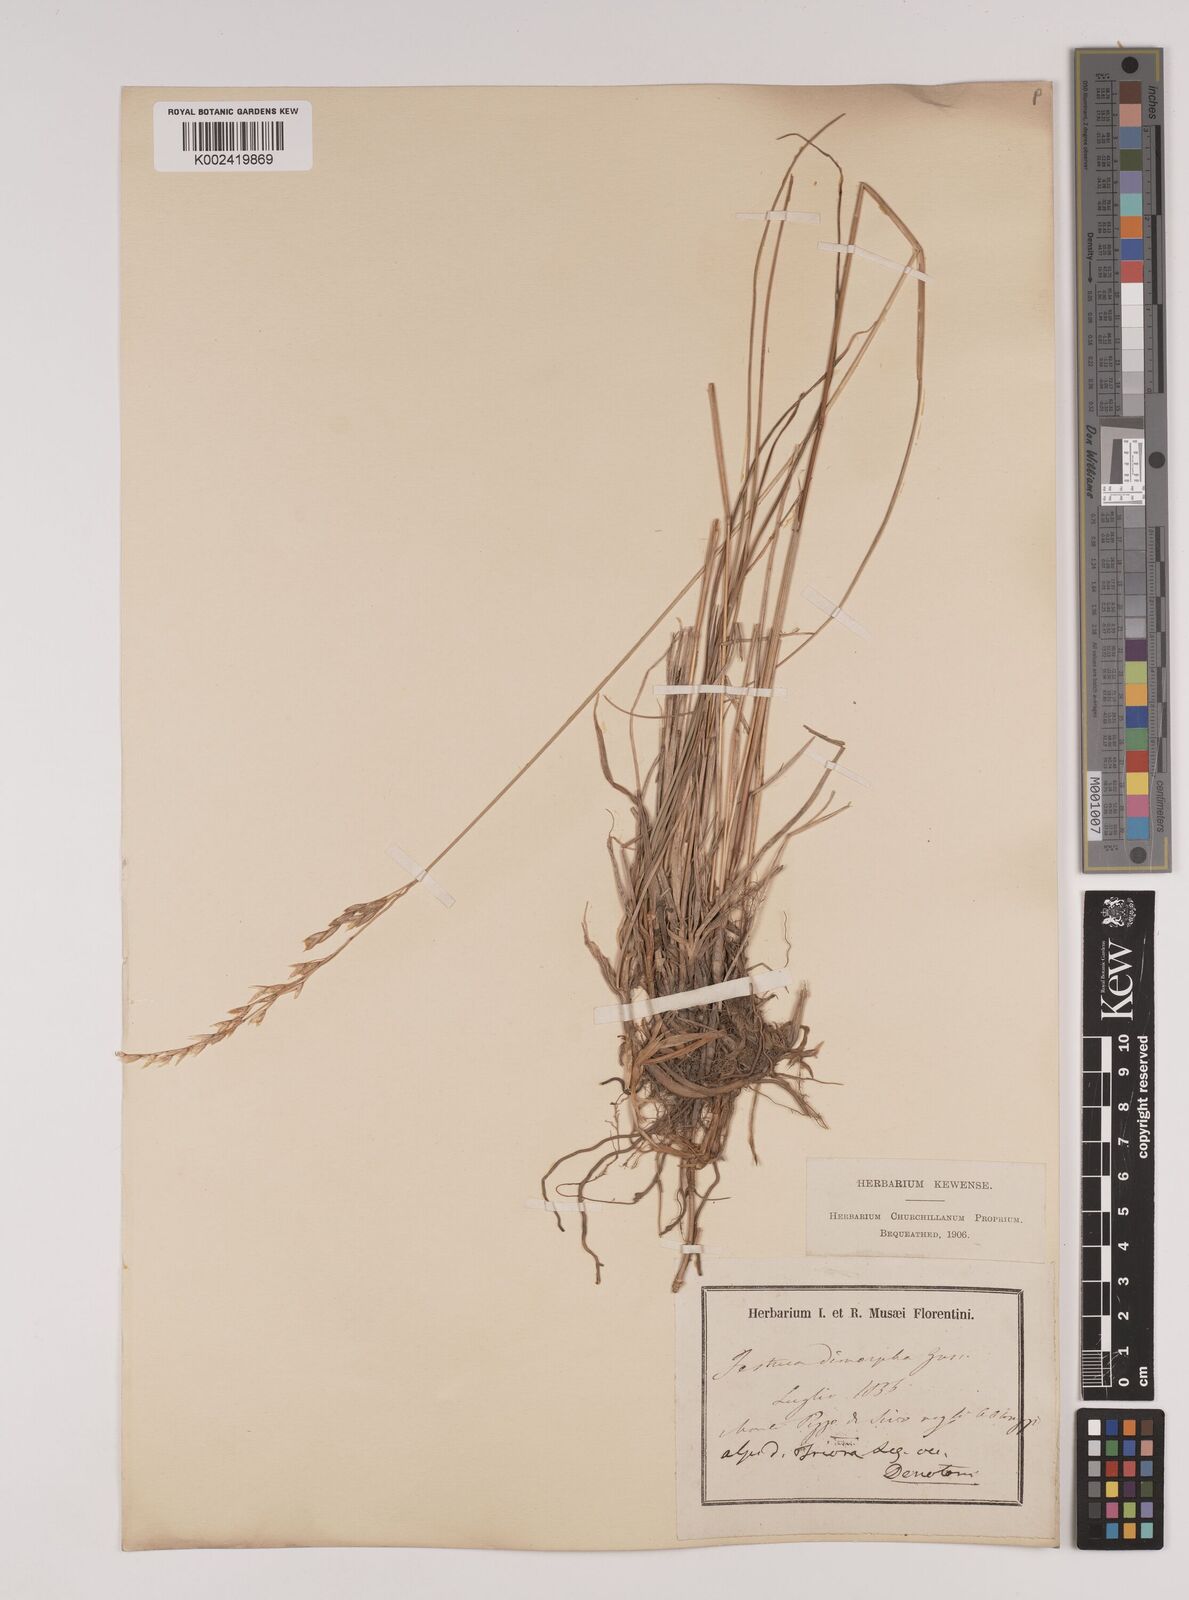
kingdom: Plantae
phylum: Tracheophyta
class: Liliopsida
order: Poales
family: Poaceae
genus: Festuca
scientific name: Festuca dimorpha
